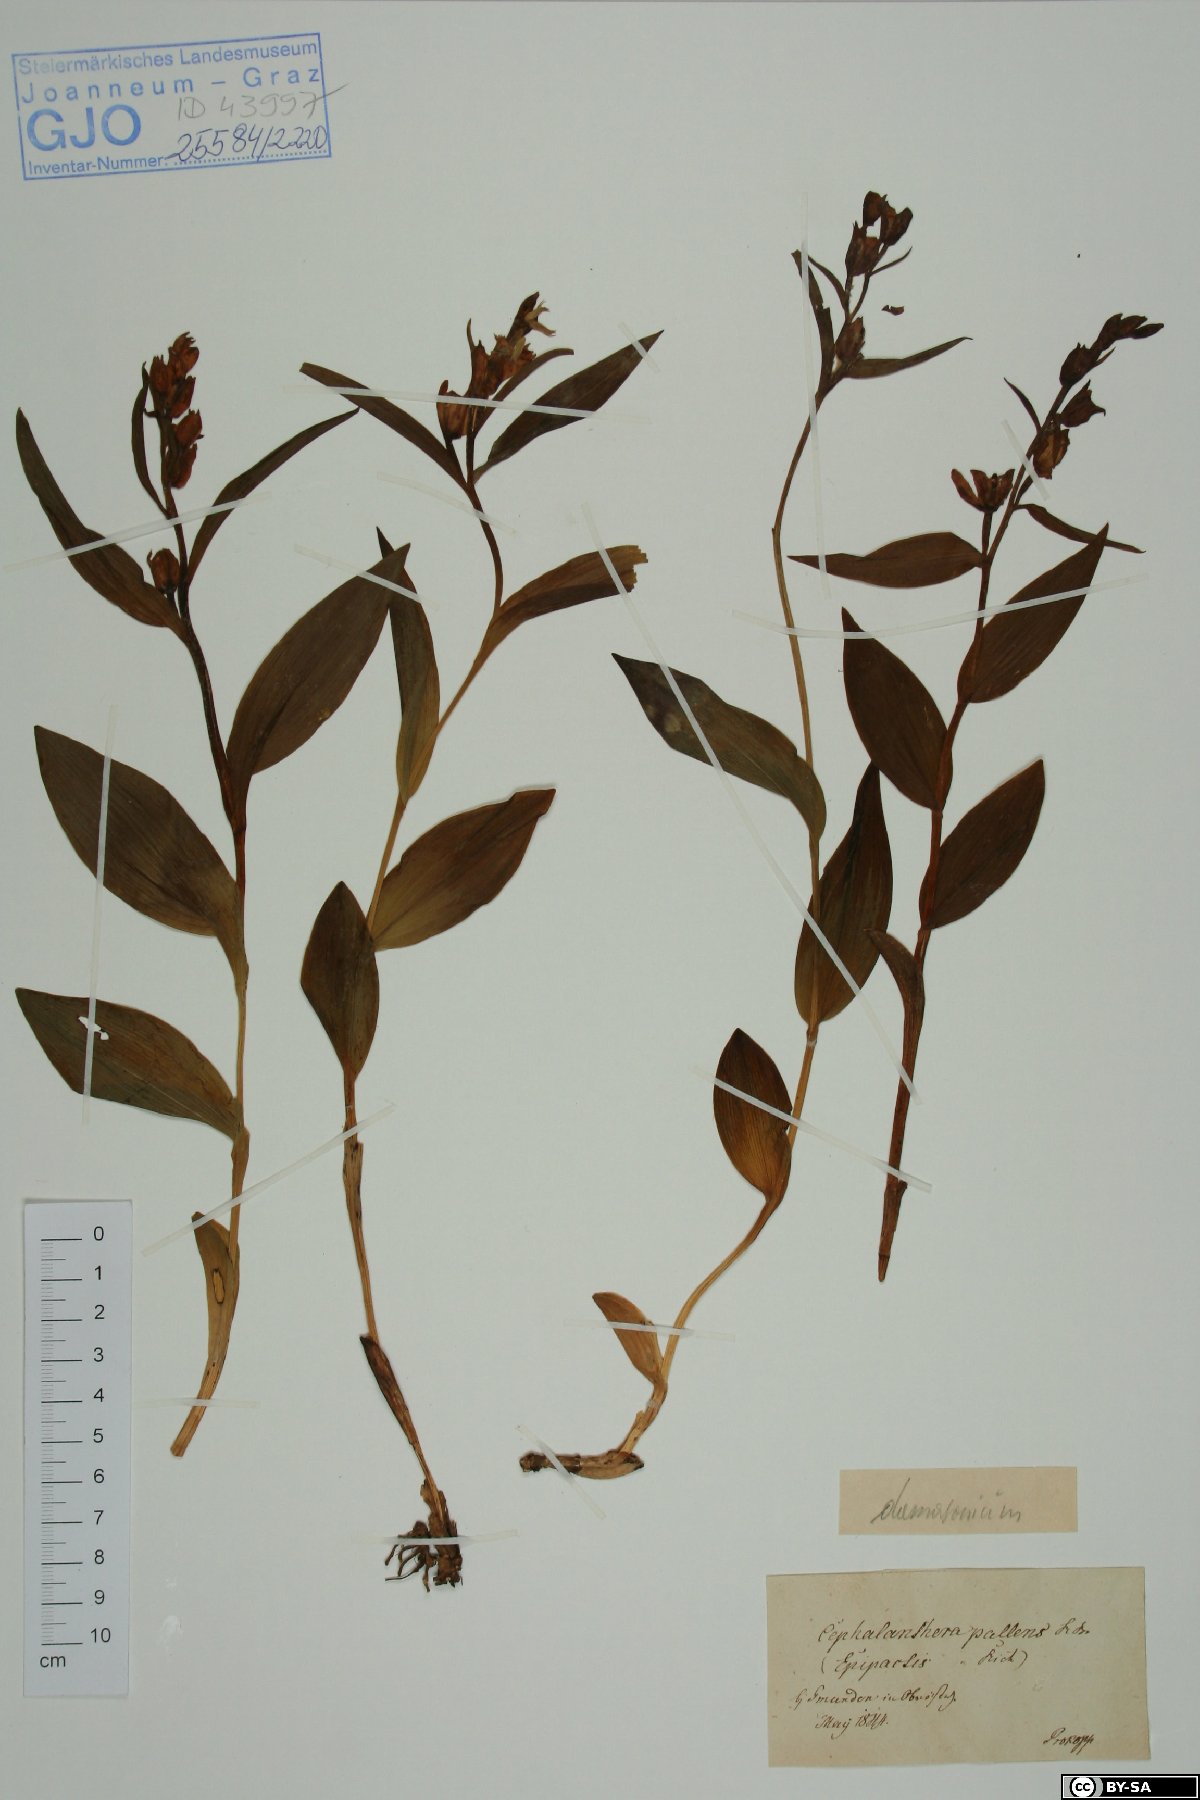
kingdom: Plantae
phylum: Tracheophyta
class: Liliopsida
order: Asparagales
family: Orchidaceae
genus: Cephalanthera
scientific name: Cephalanthera longifolia
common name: Narrow-leaved helleborine
